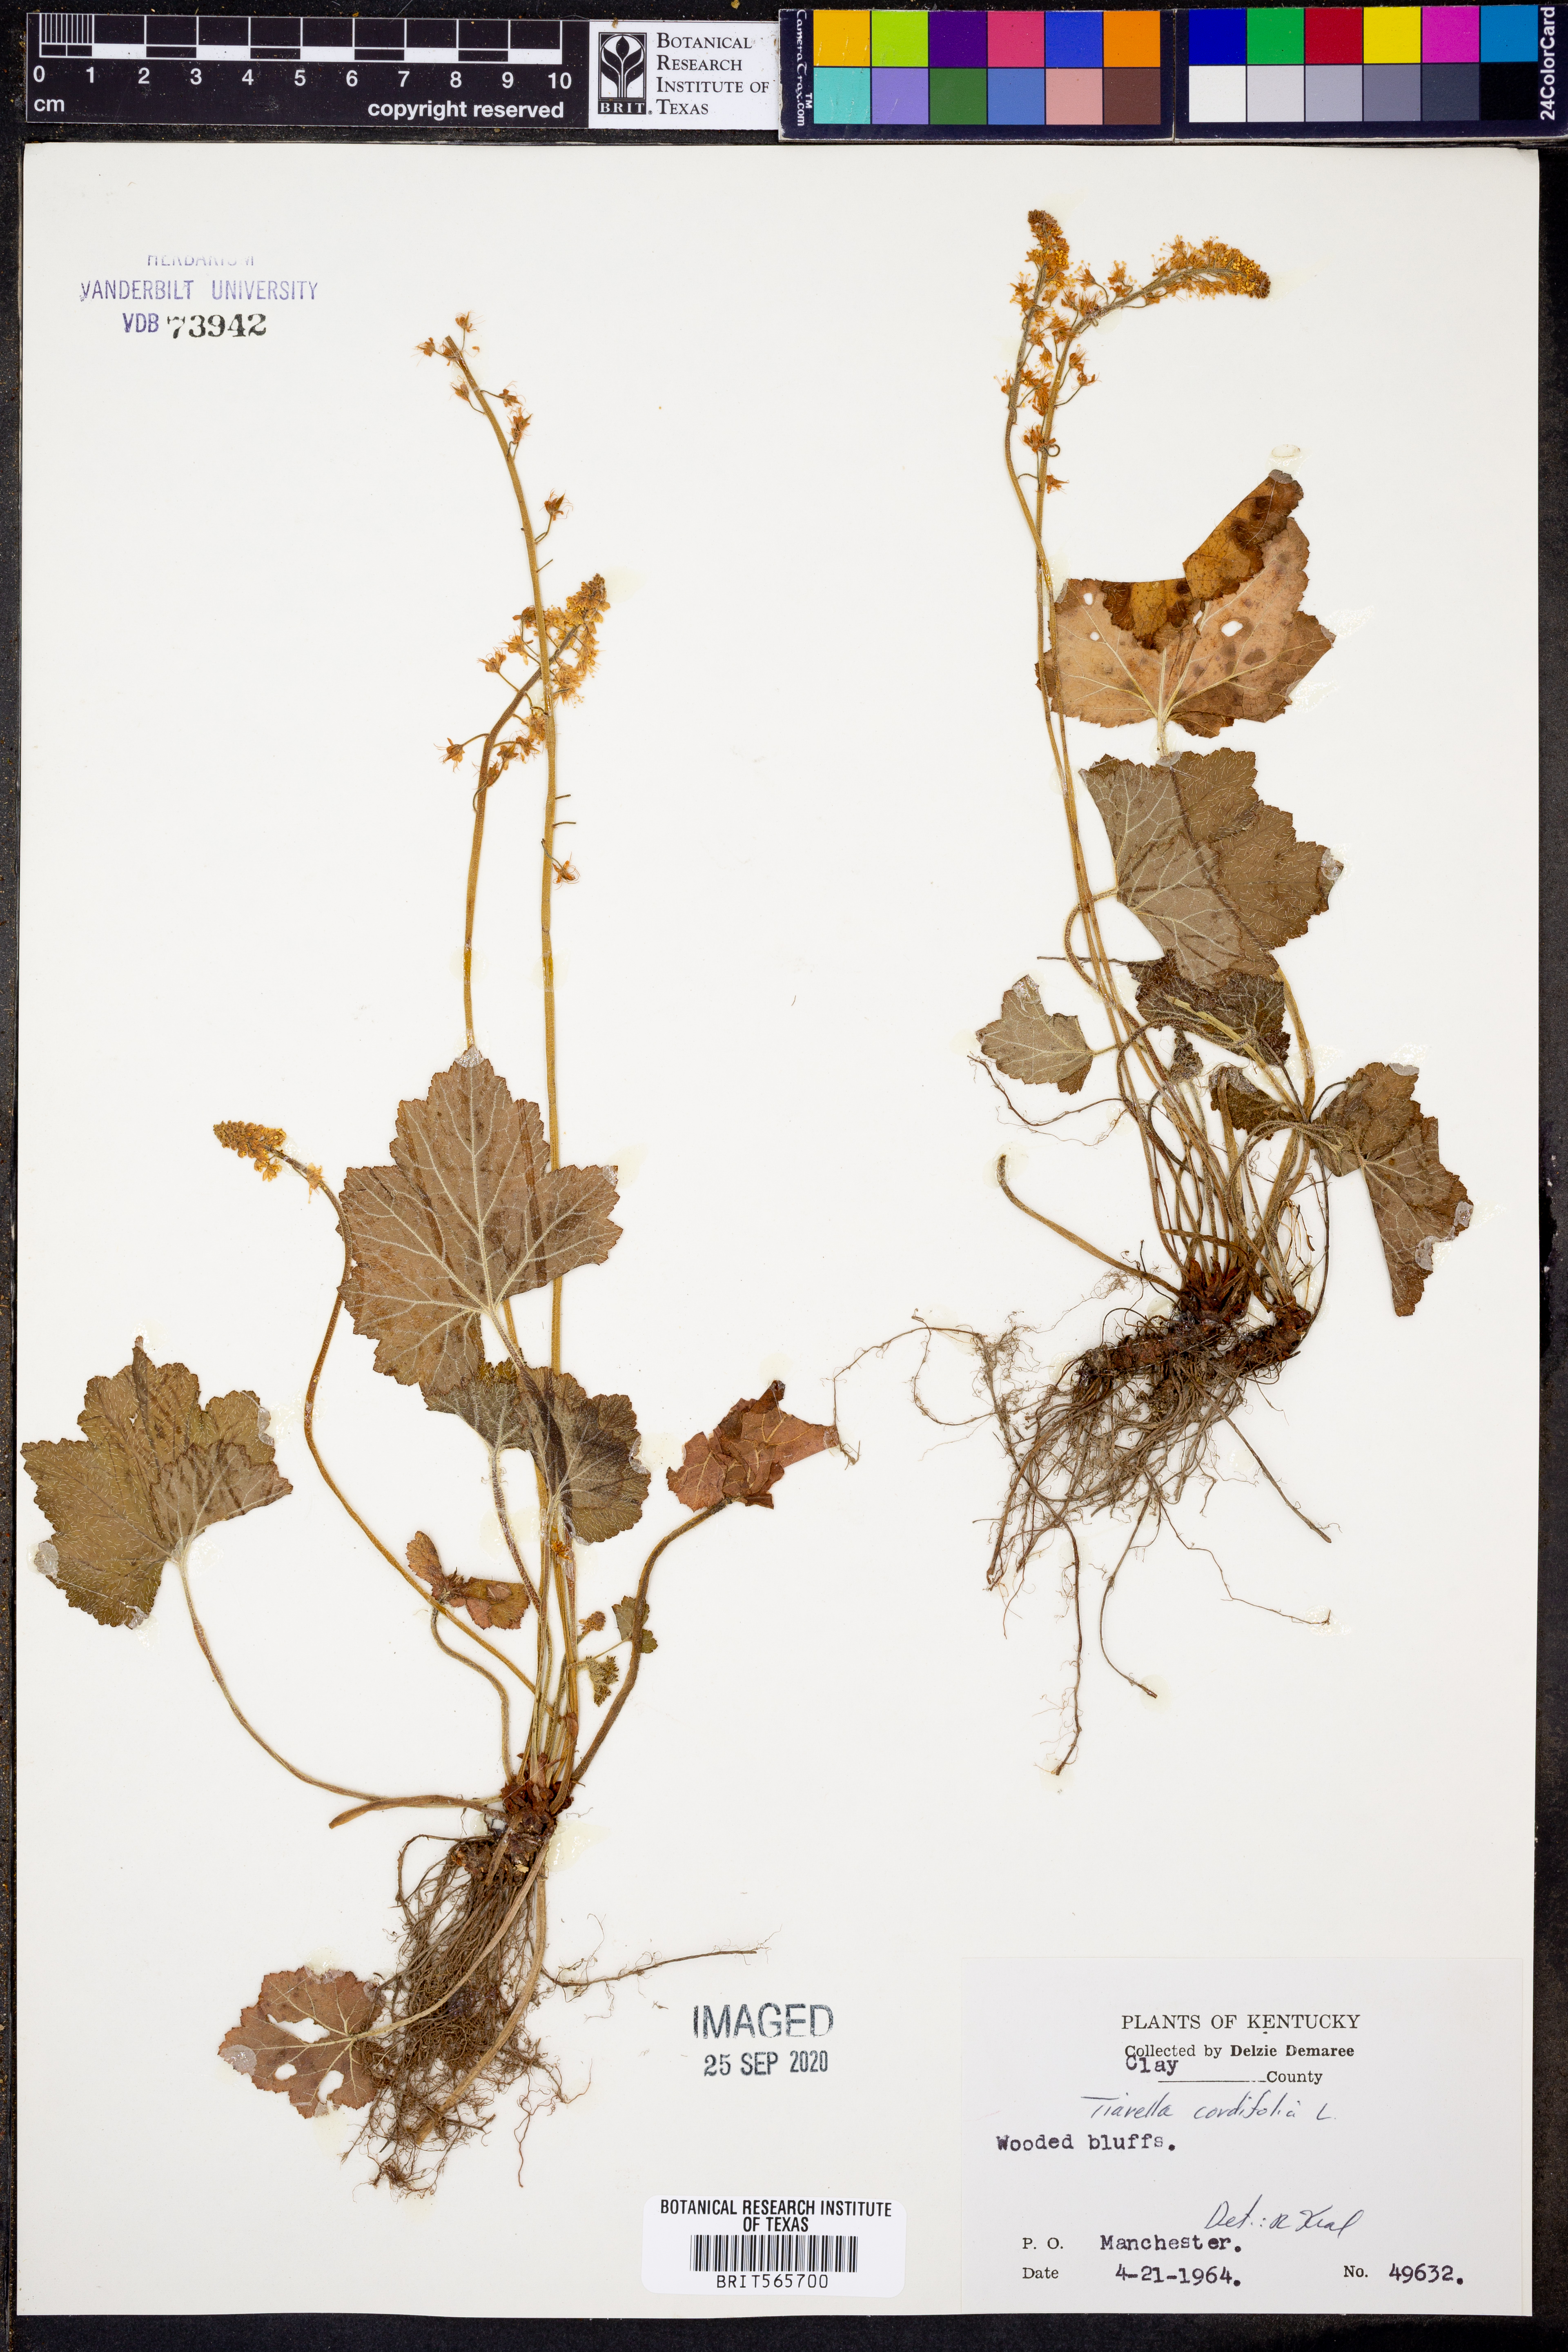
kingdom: Plantae
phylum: Tracheophyta
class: Magnoliopsida
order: Saxifragales
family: Saxifragaceae
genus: Tiarella
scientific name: Tiarella cordifolia
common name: Foamflower
